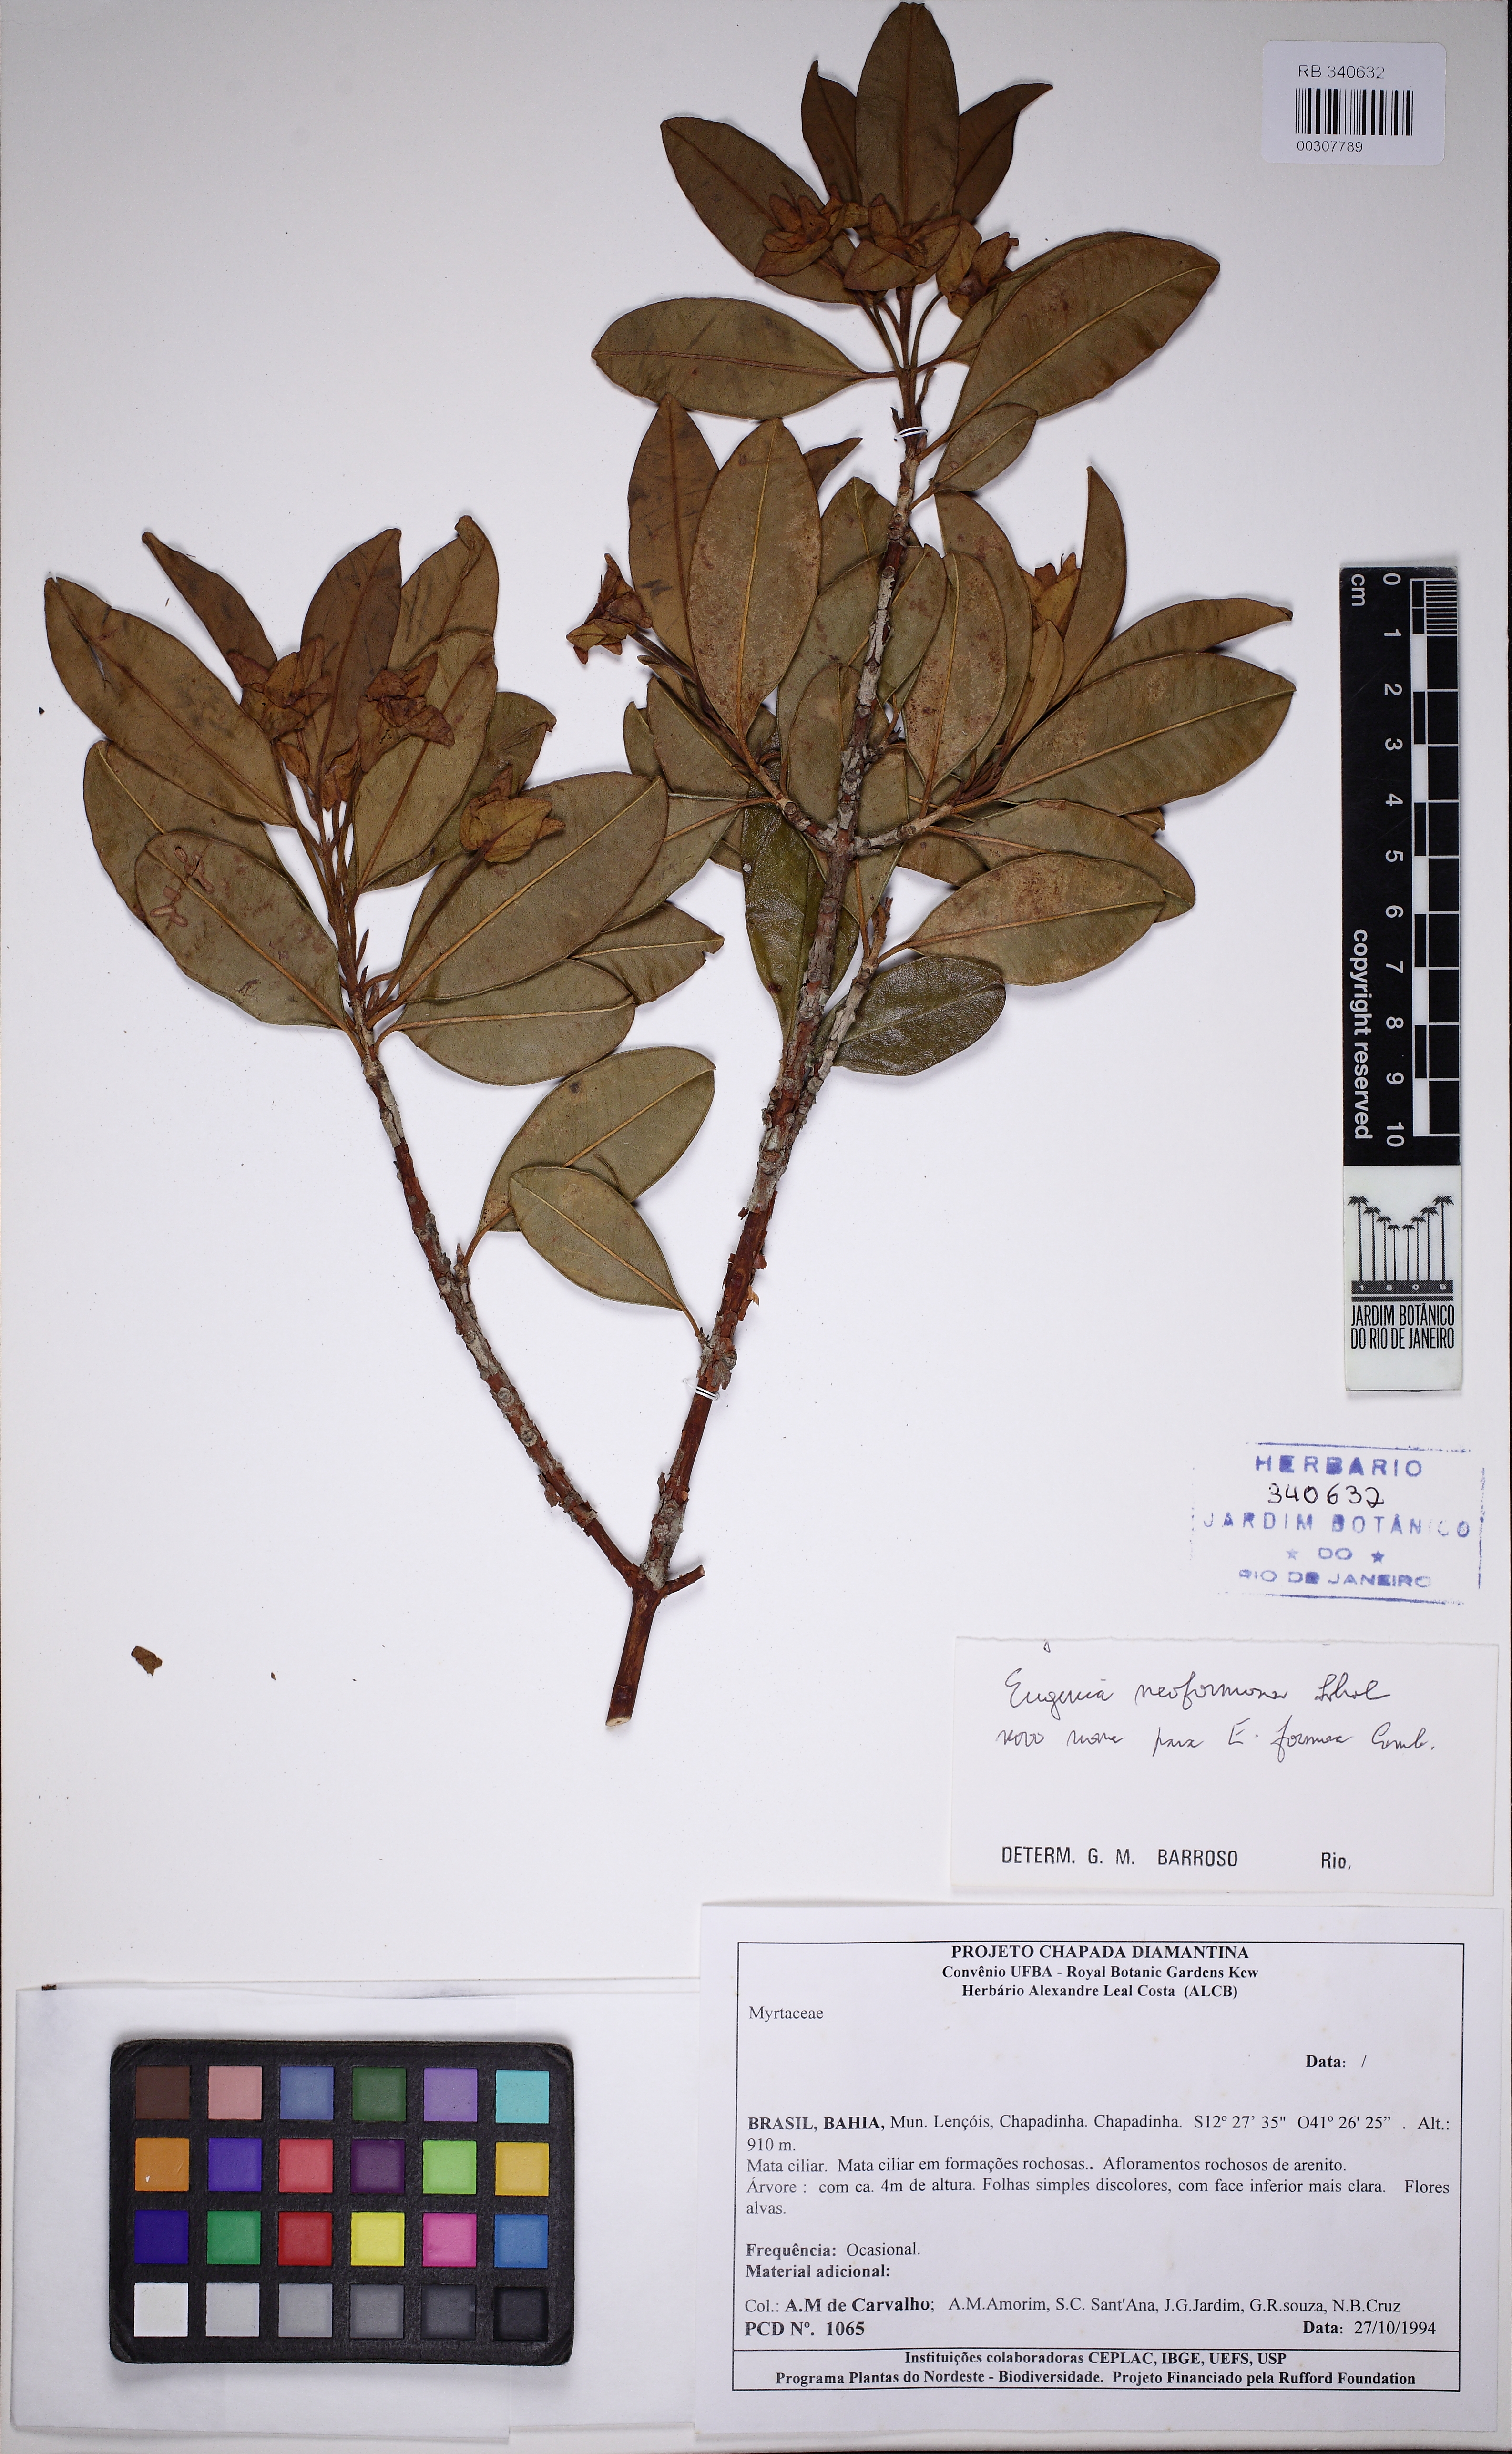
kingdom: Plantae
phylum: Tracheophyta
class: Magnoliopsida
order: Myrtales
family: Myrtaceae
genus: Eugenia
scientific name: Eugenia involucrata
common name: Cherry-of-the-rio grande
